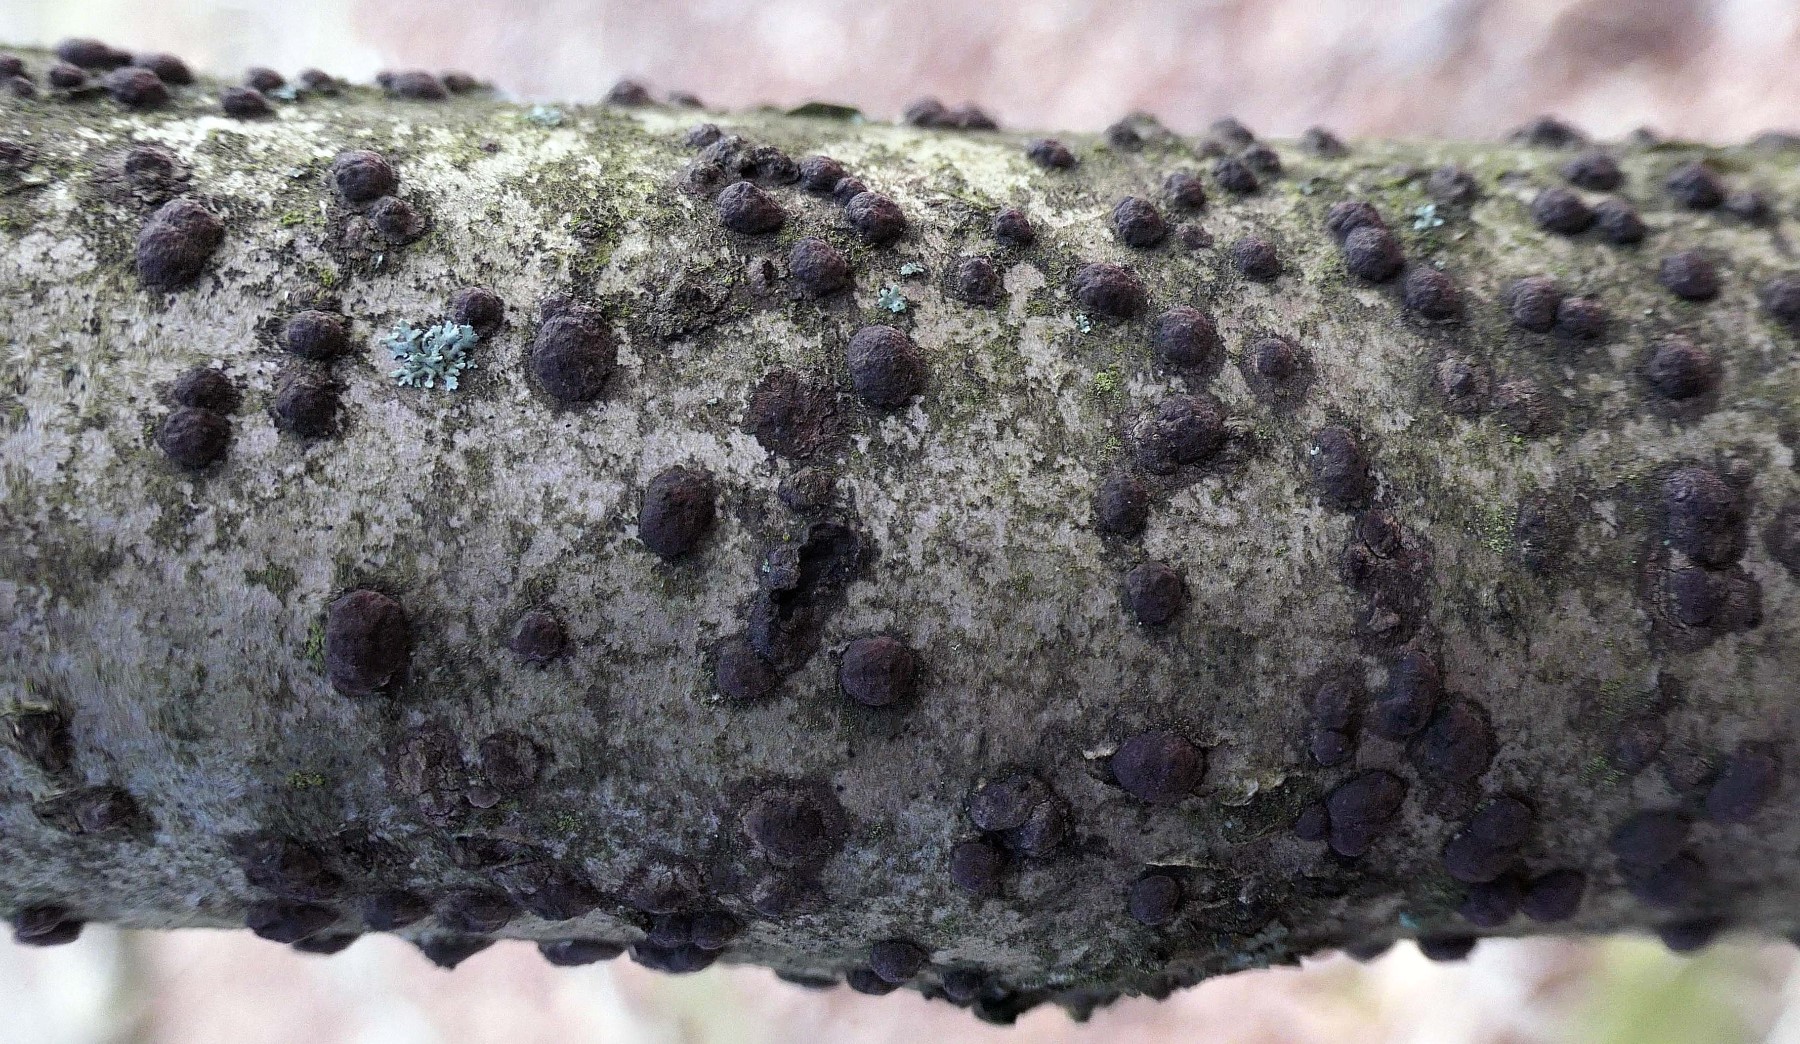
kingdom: Fungi
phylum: Ascomycota
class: Sordariomycetes
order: Xylariales
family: Hypoxylaceae
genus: Hypoxylon
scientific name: Hypoxylon fuscum
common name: kegleformet kulbær
